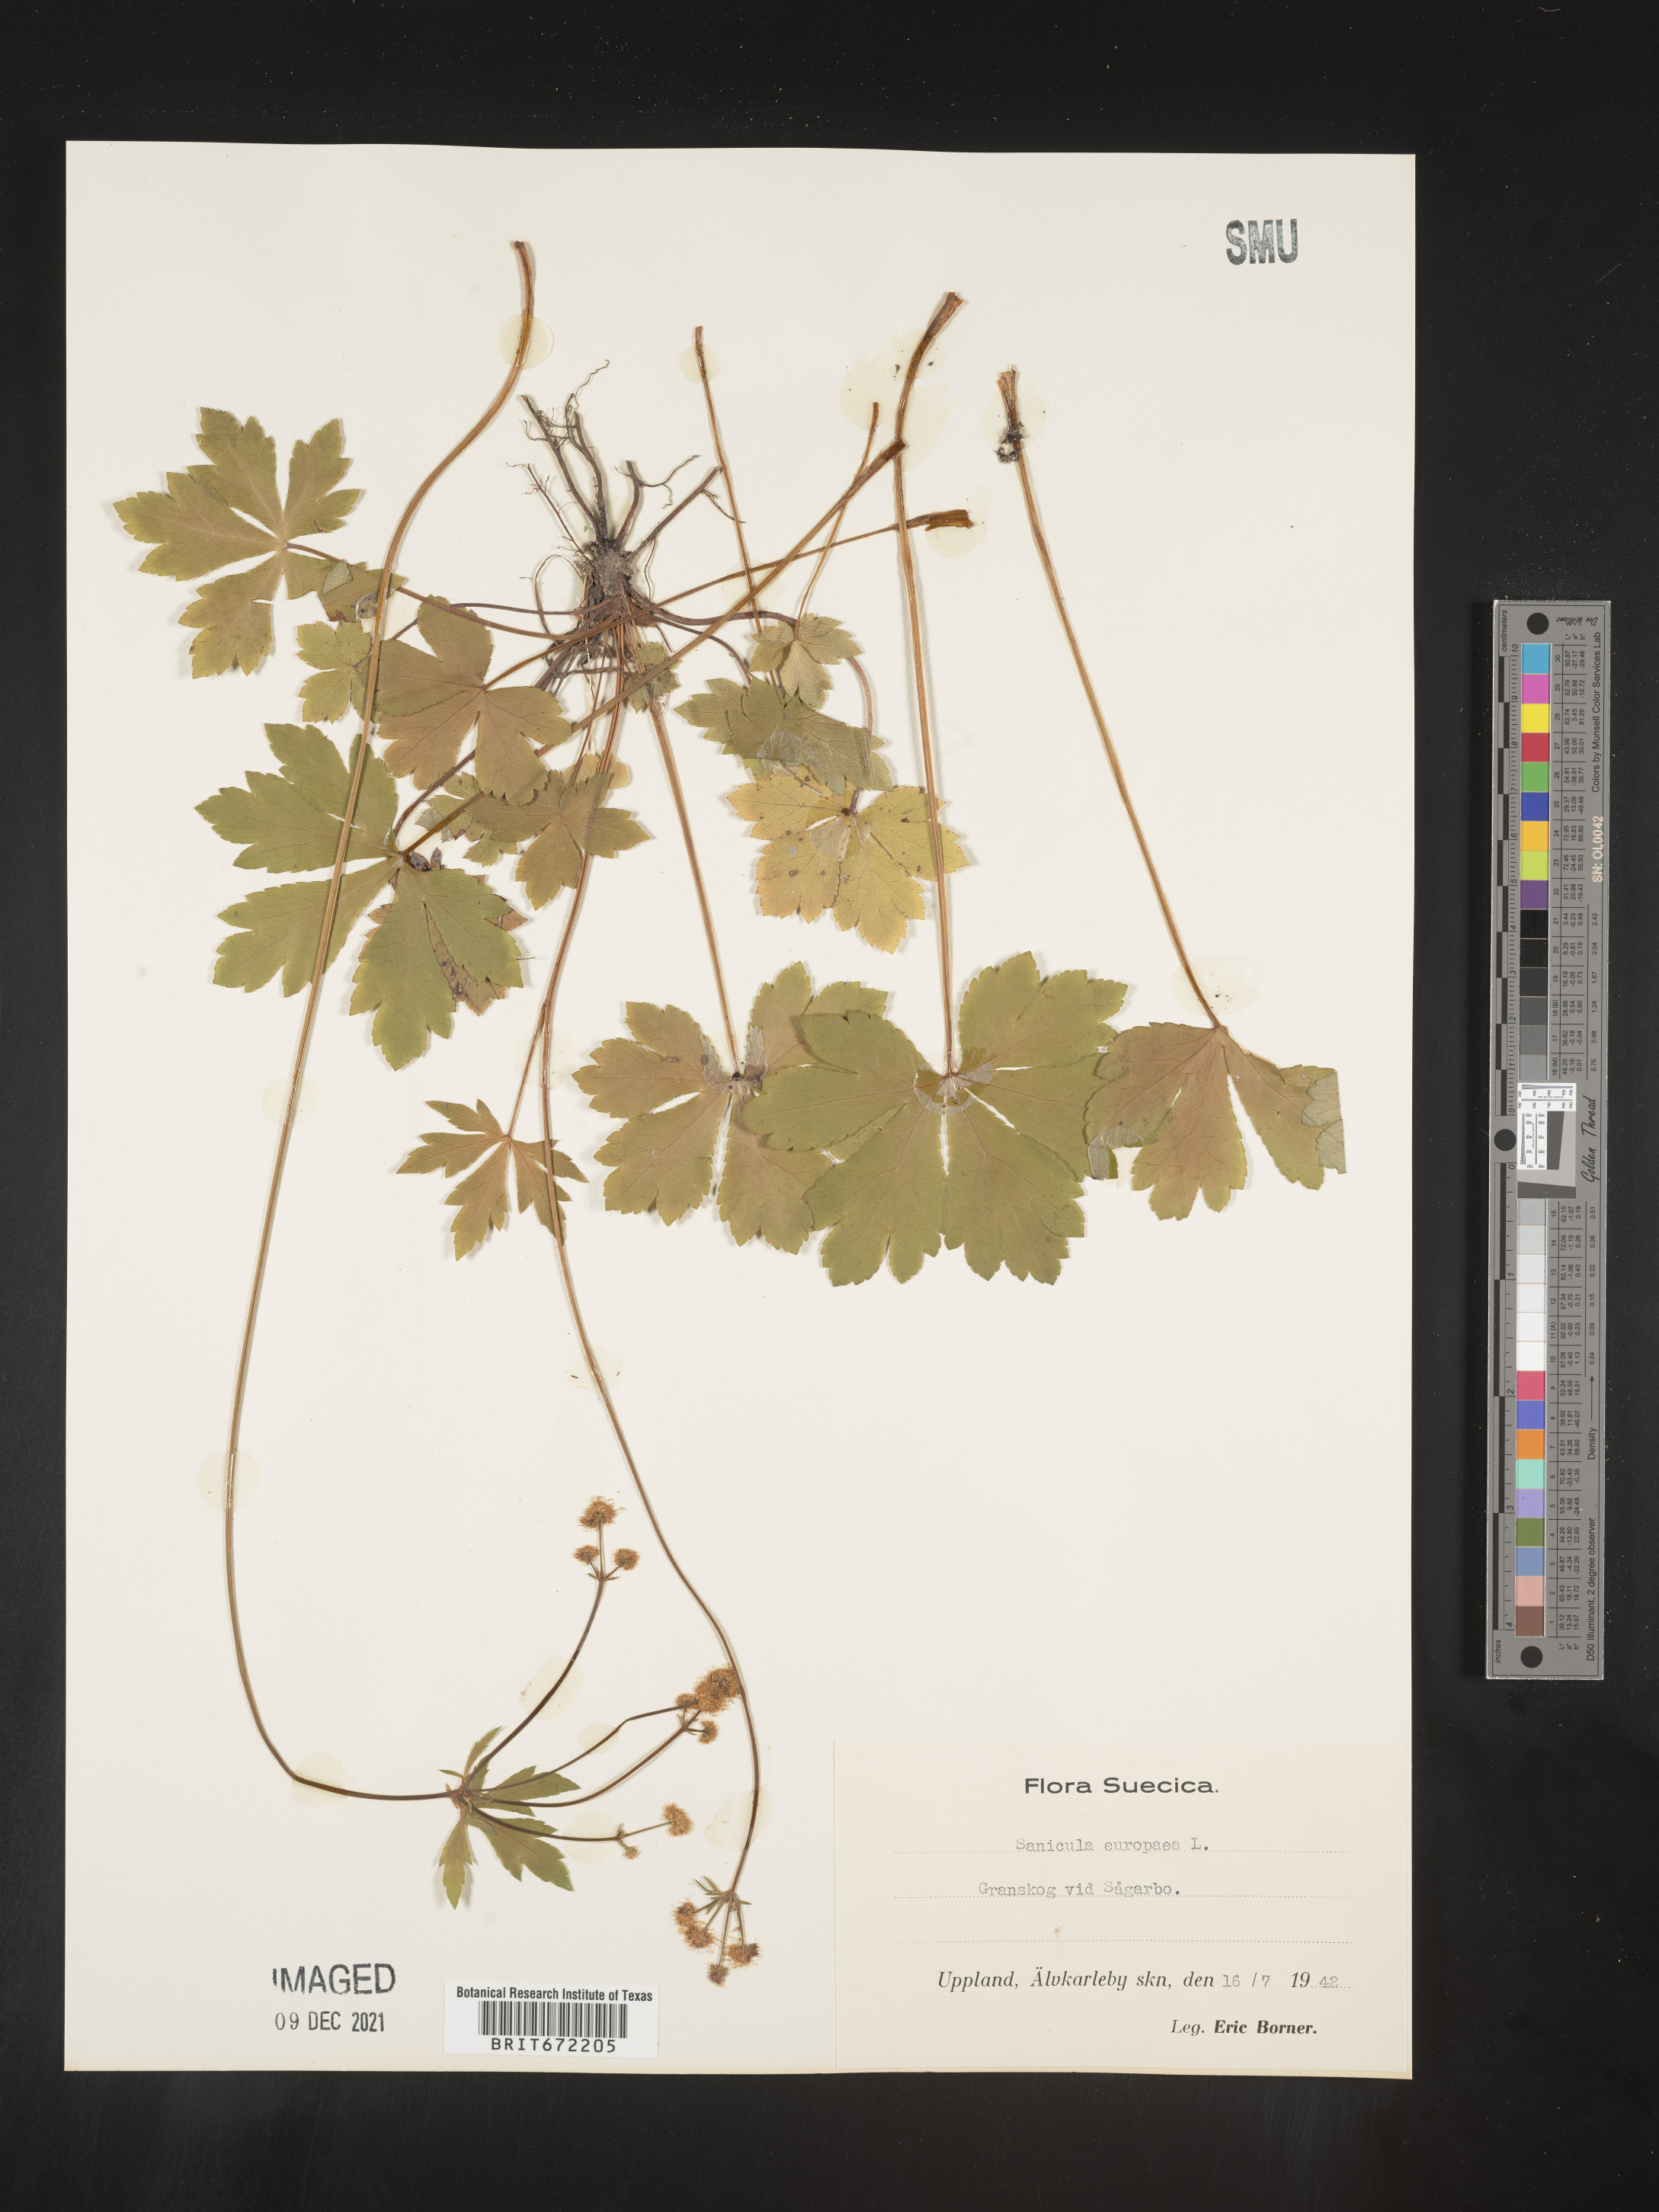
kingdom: Plantae
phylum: Tracheophyta
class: Magnoliopsida
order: Apiales
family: Apiaceae
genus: Sanicula
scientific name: Sanicula
